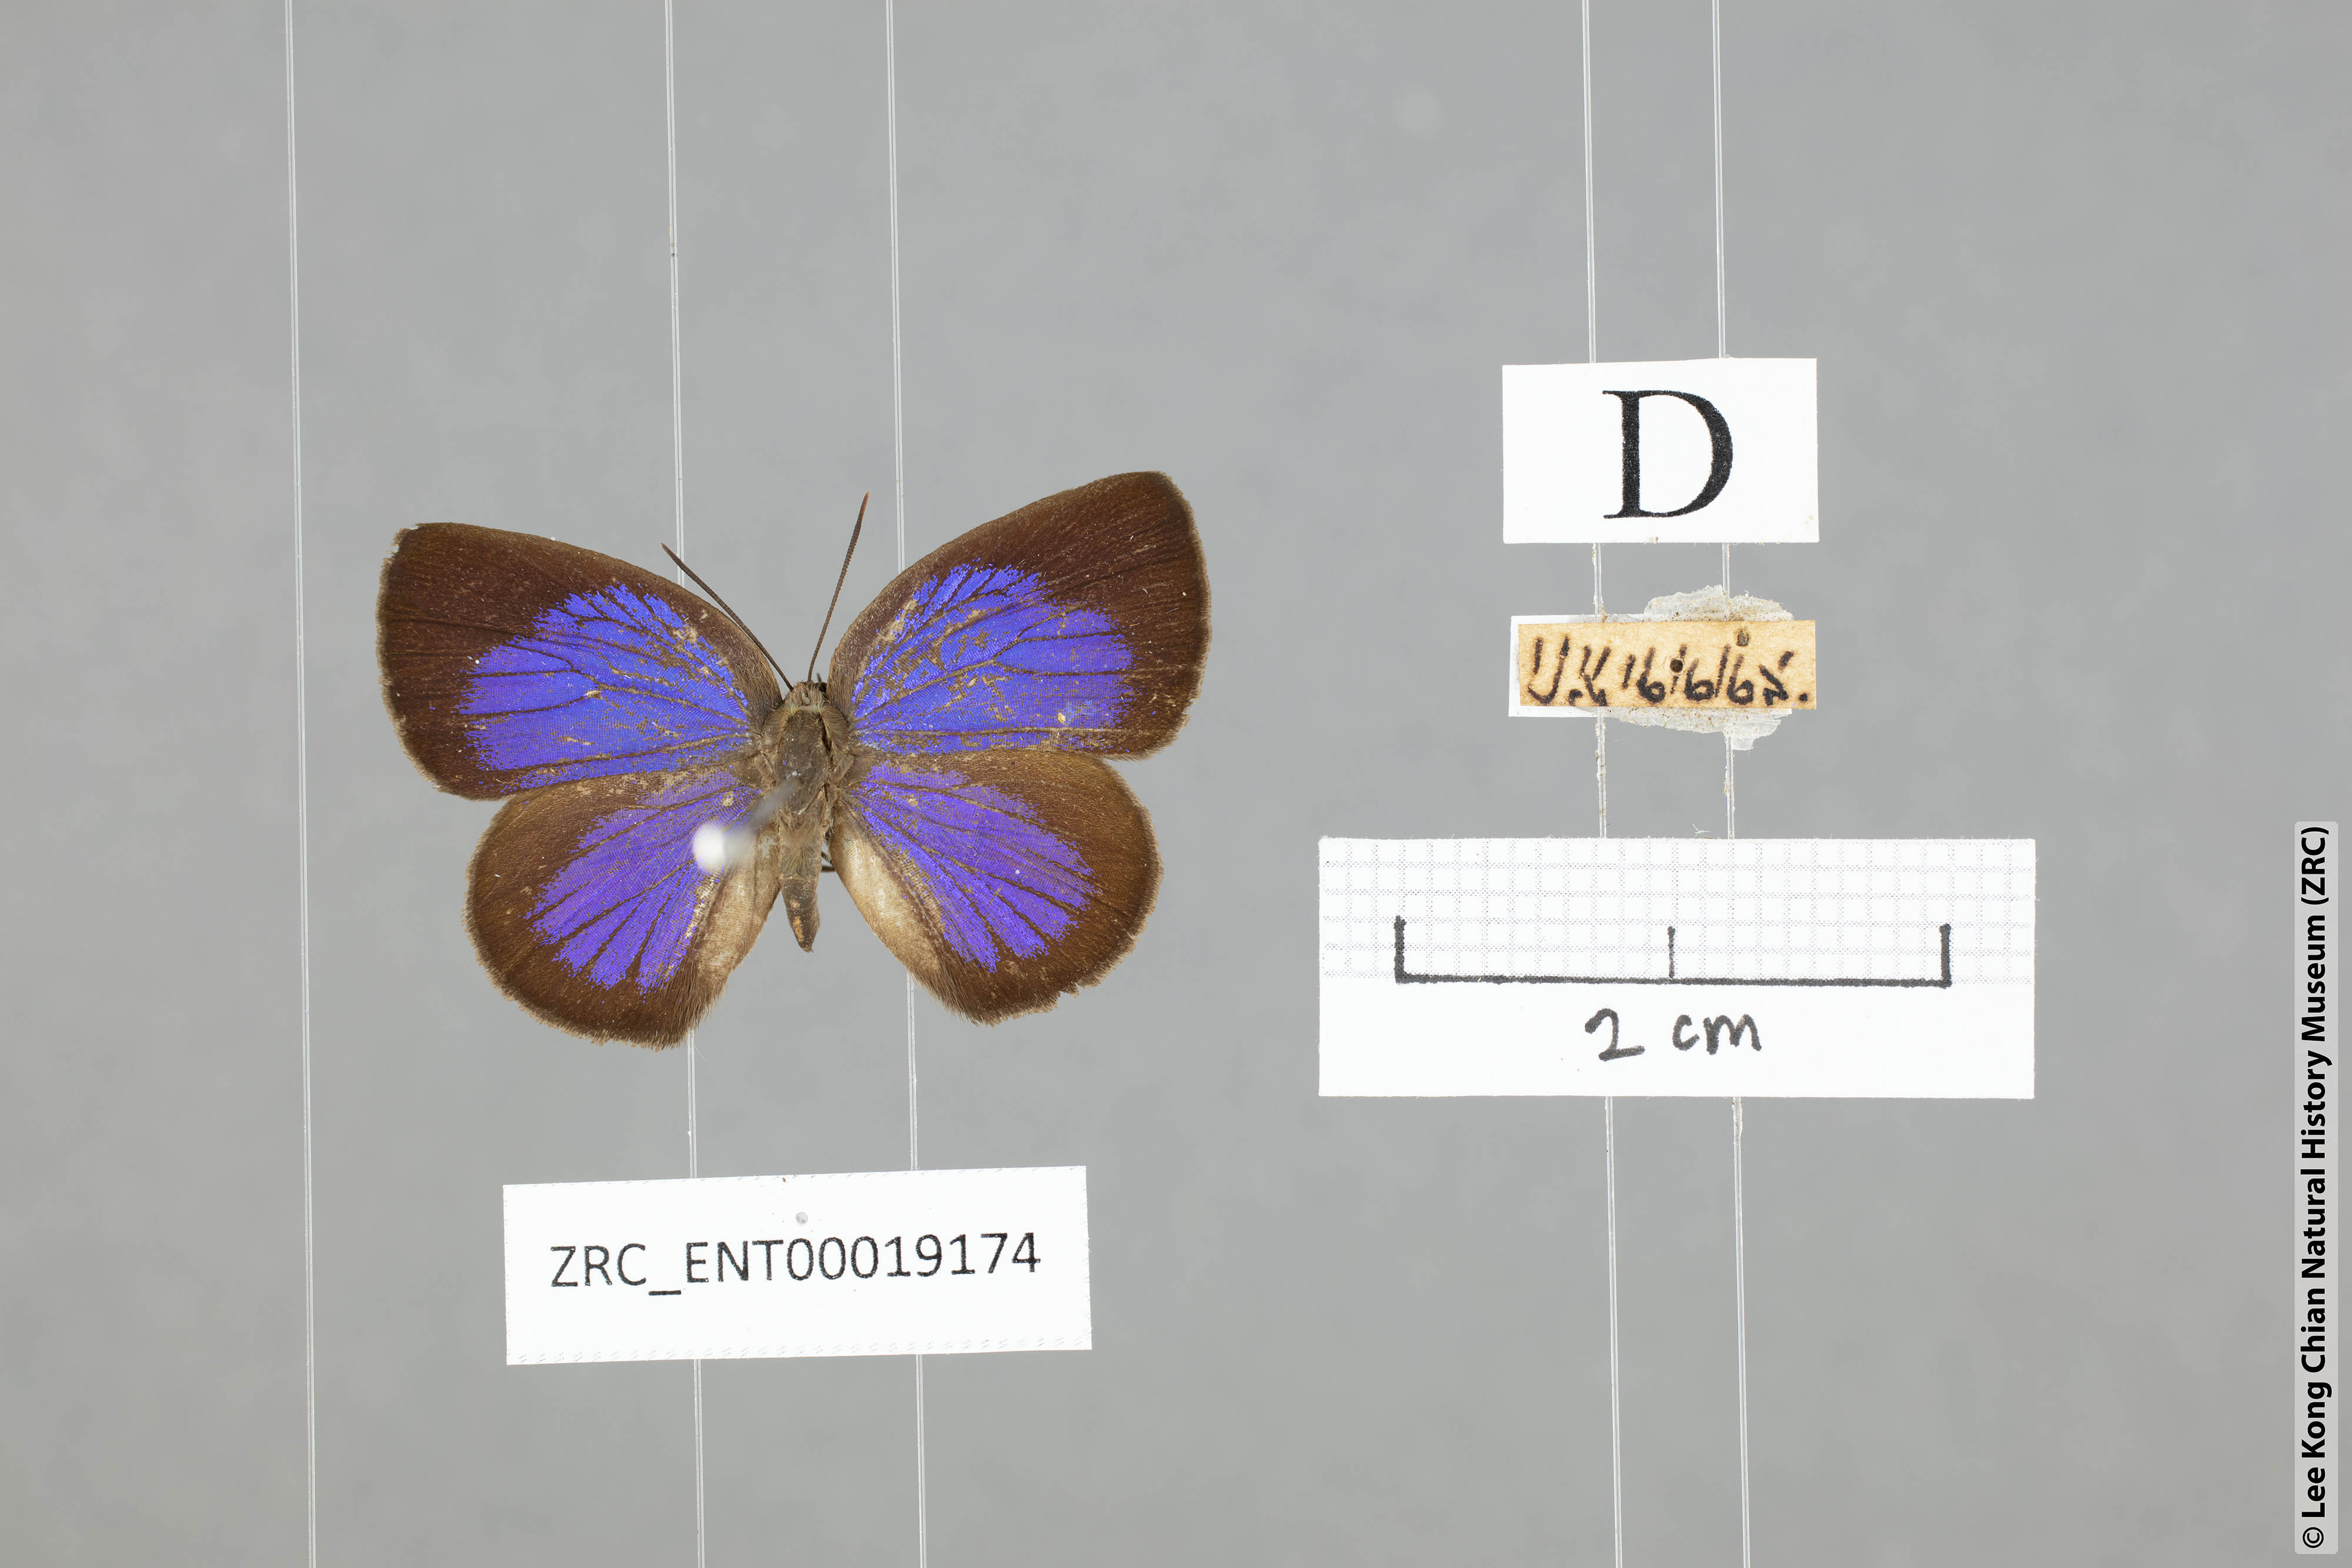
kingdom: Animalia
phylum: Arthropoda
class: Insecta
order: Lepidoptera
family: Lycaenidae
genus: Arhopala
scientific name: Arhopala antimuta
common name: Small tailless oakblue
